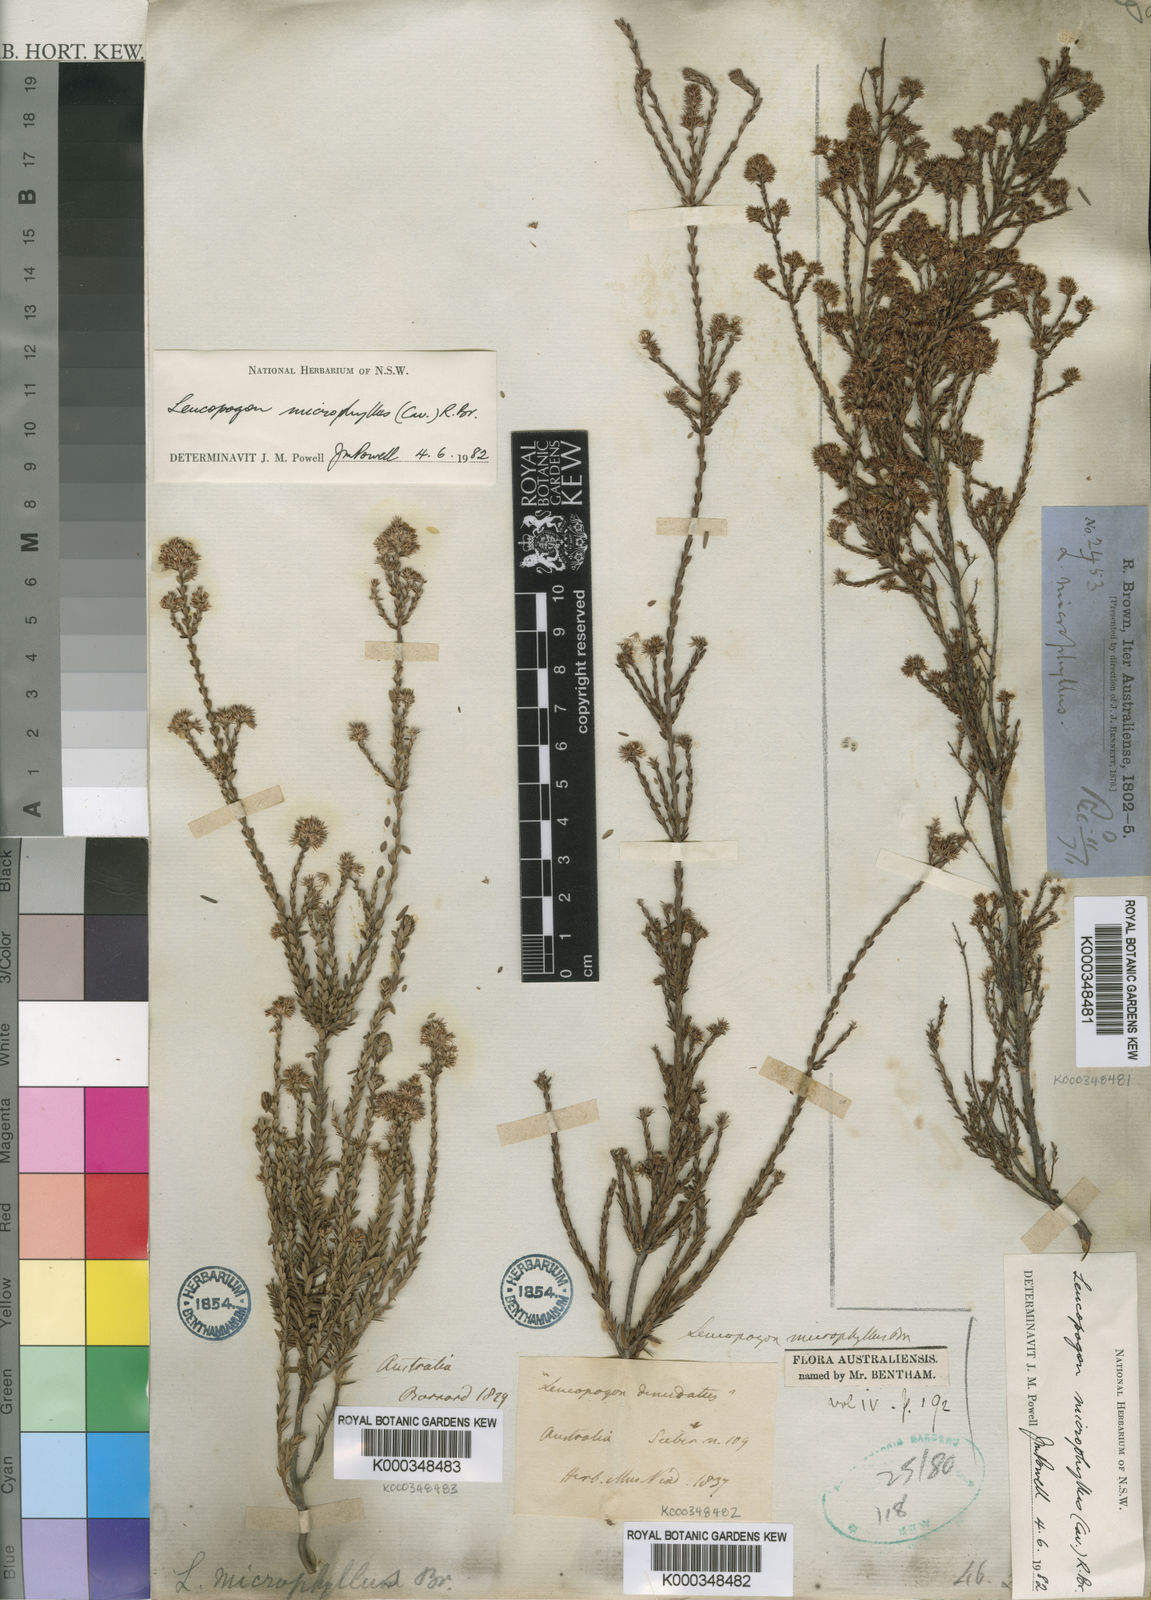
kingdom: Plantae
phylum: Tracheophyta
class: Magnoliopsida
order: Ericales
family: Ericaceae
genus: Leucopogon
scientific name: Leucopogon microphyllus
